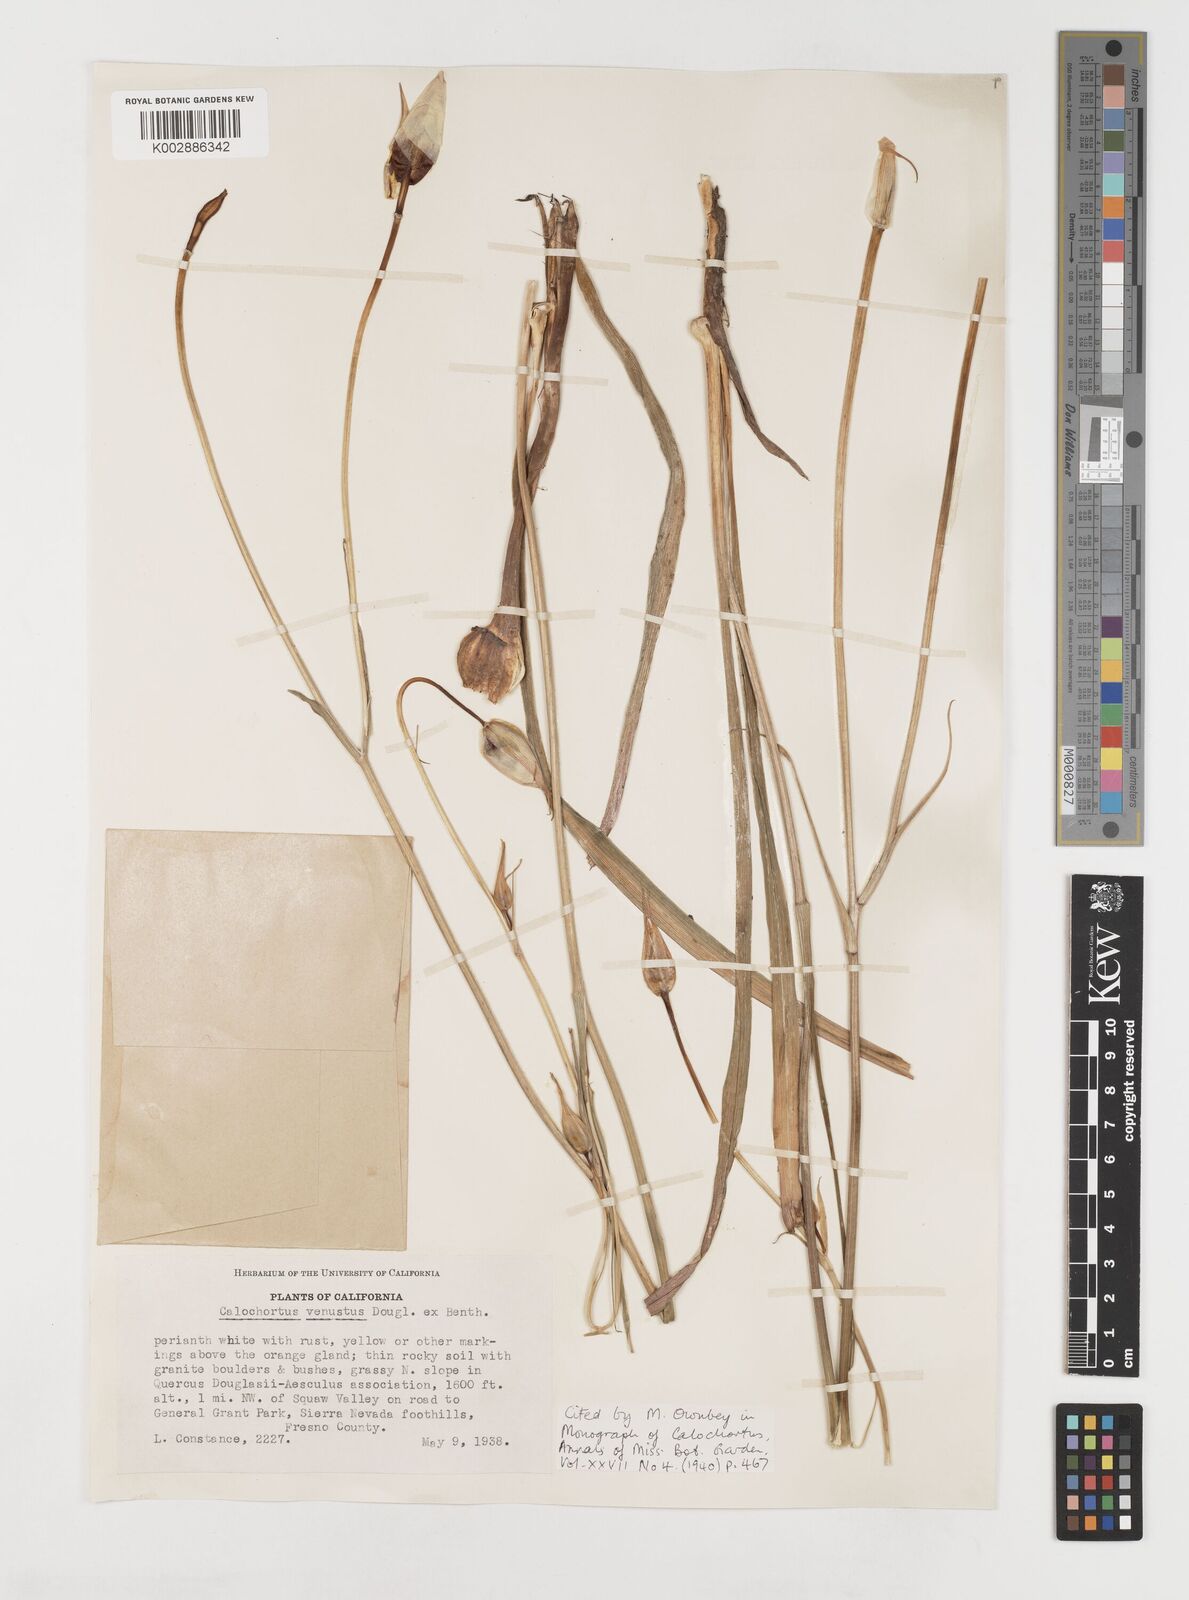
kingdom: Plantae
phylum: Tracheophyta
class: Liliopsida
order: Liliales
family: Liliaceae
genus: Calochortus
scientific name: Calochortus venustus
